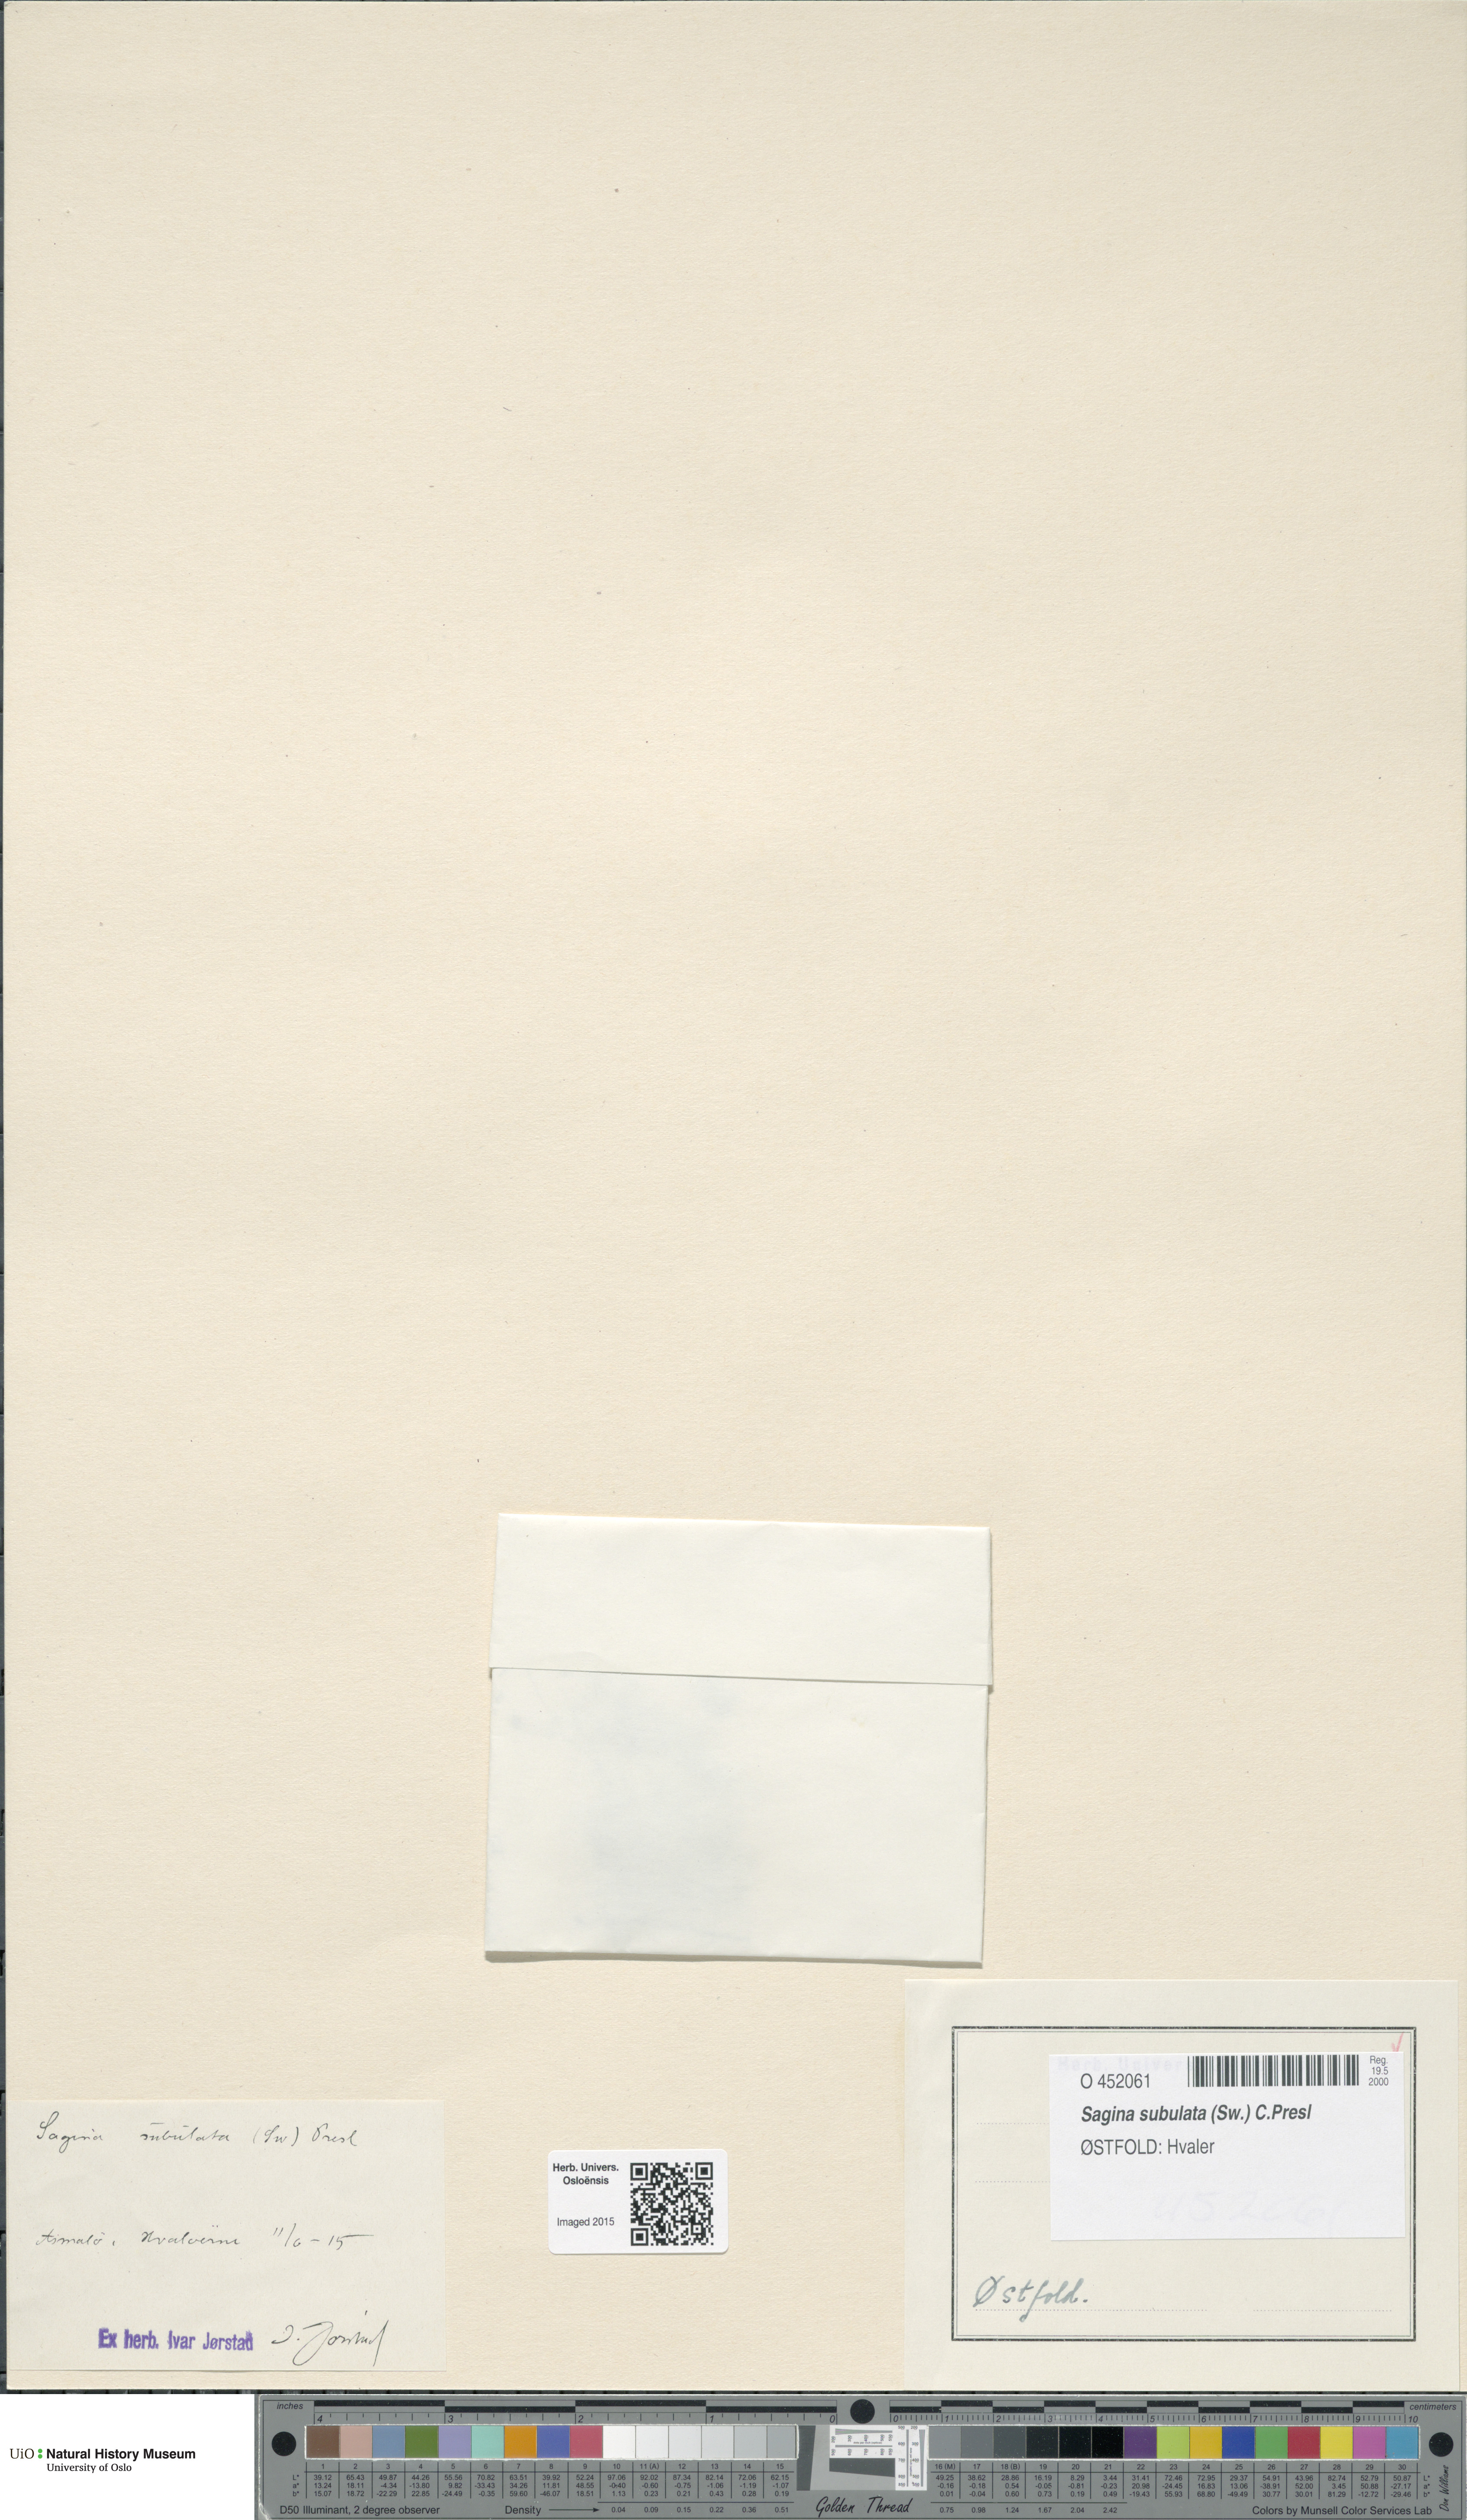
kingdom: Plantae
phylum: Tracheophyta
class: Magnoliopsida
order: Caryophyllales
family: Caryophyllaceae
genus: Sagina
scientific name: Sagina alexandrae
